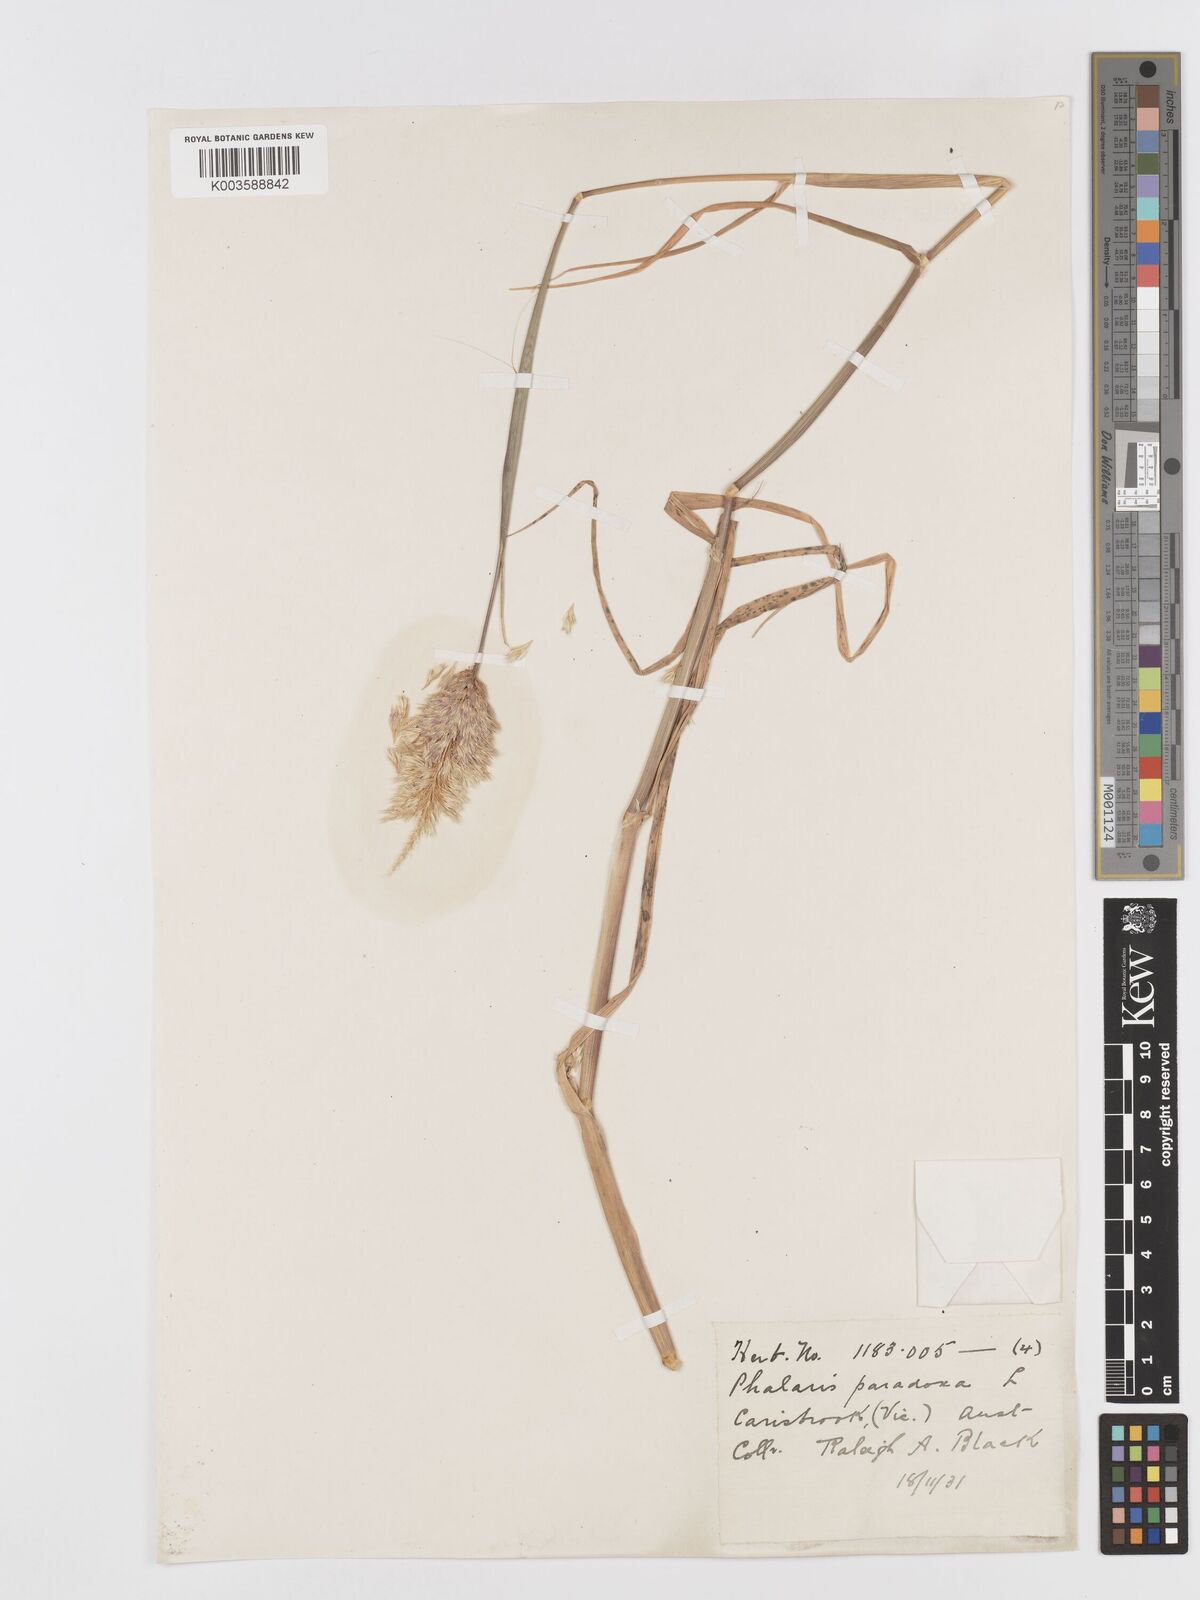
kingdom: Plantae
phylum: Tracheophyta
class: Liliopsida
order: Poales
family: Poaceae
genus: Phalaris
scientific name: Phalaris
